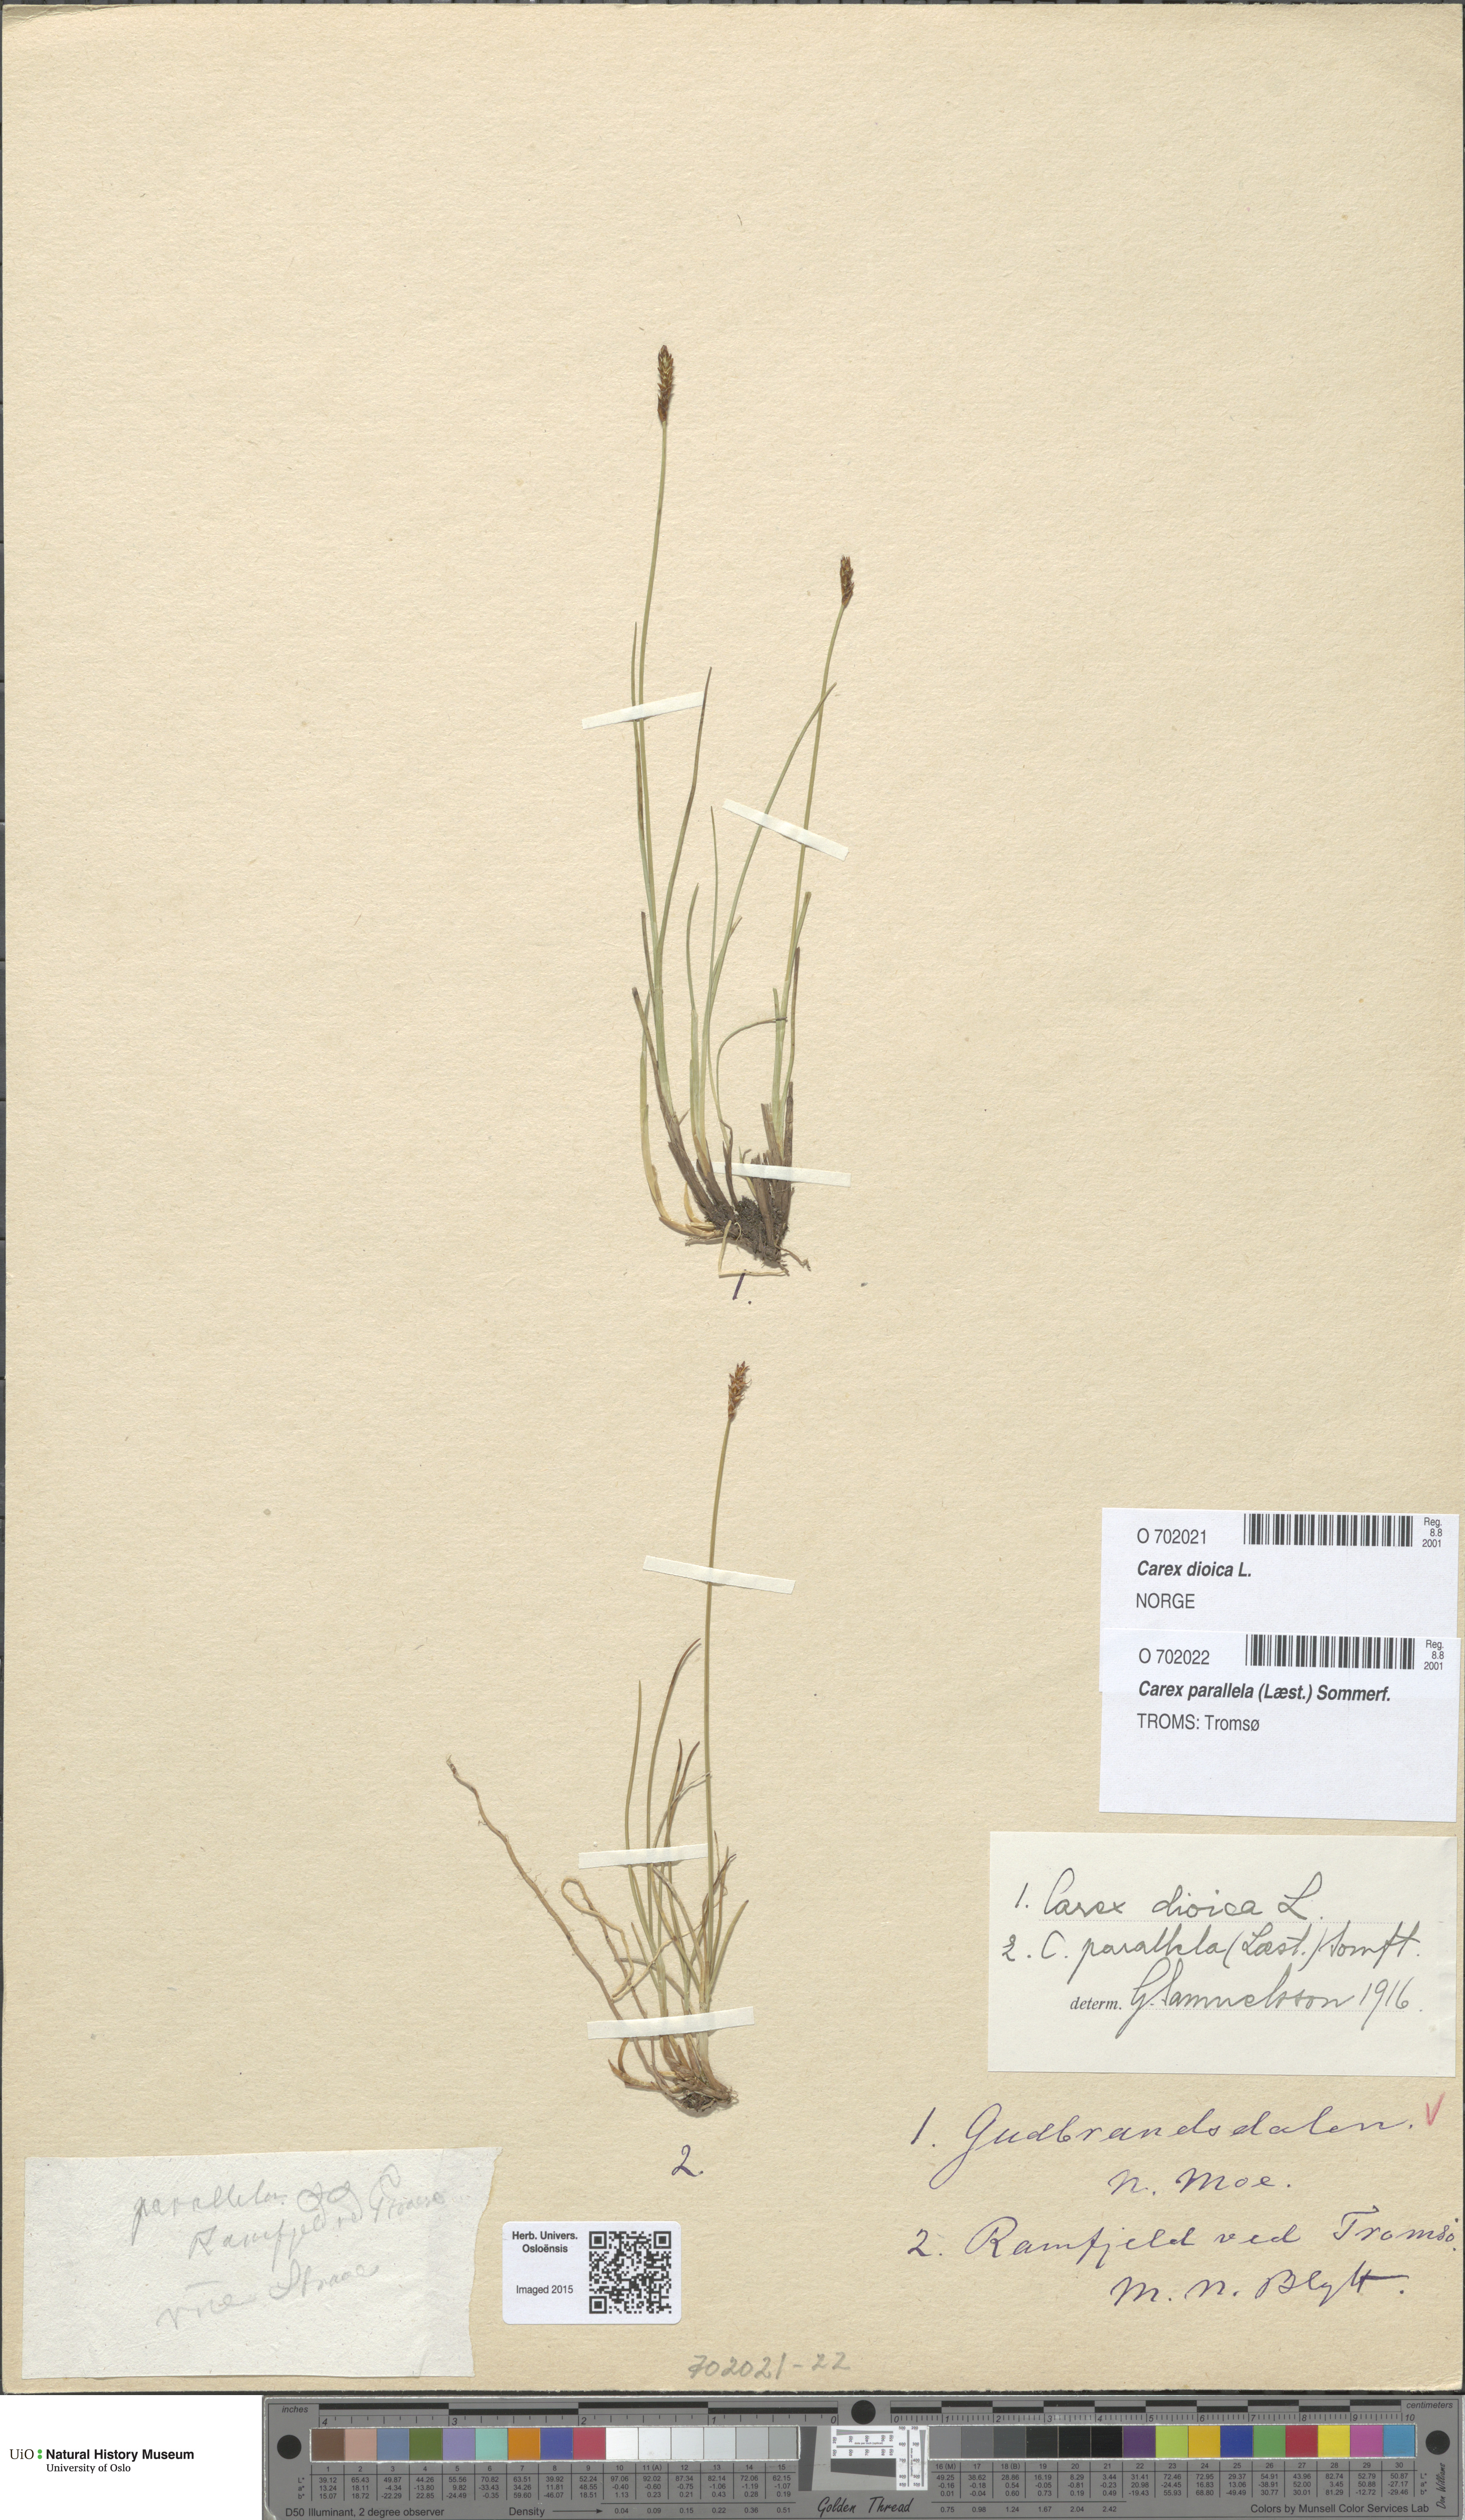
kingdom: Plantae
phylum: Tracheophyta
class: Liliopsida
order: Poales
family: Cyperaceae
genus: Carex
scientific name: Carex parallela
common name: Parallel sedge
